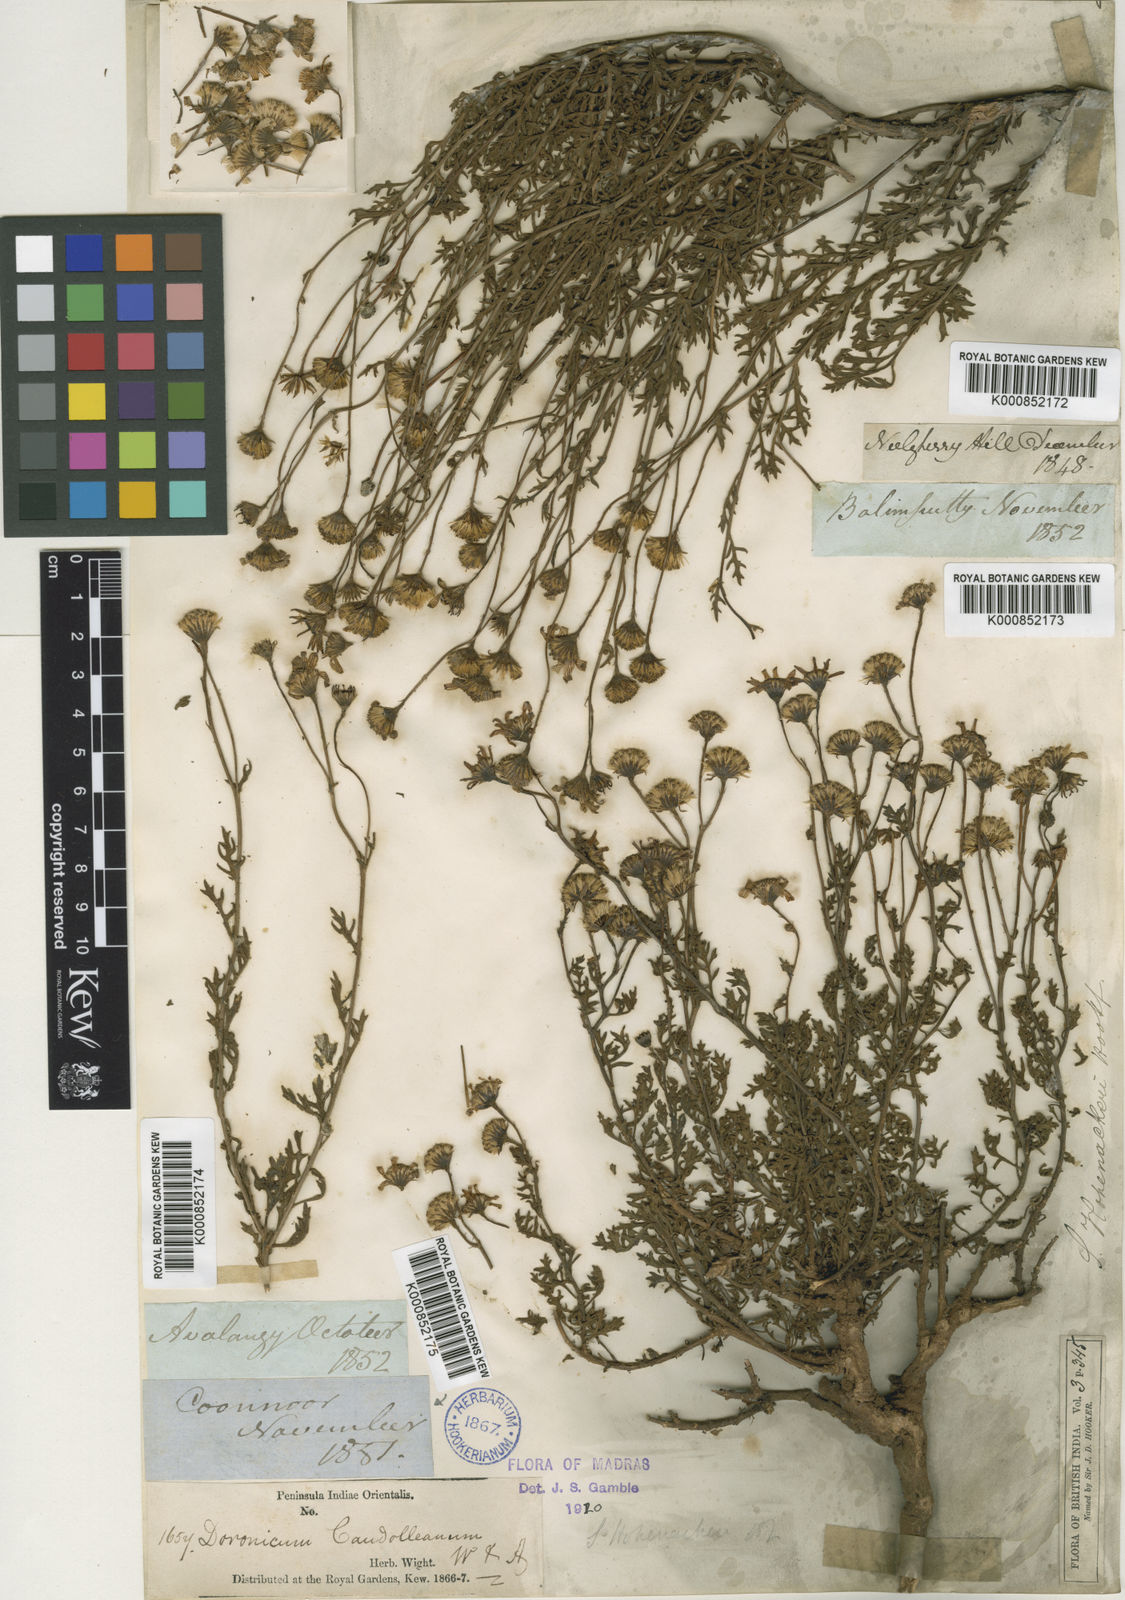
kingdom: Plantae
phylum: Tracheophyta
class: Magnoliopsida
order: Asterales
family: Asteraceae
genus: Senecio
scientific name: Senecio madrasensis
